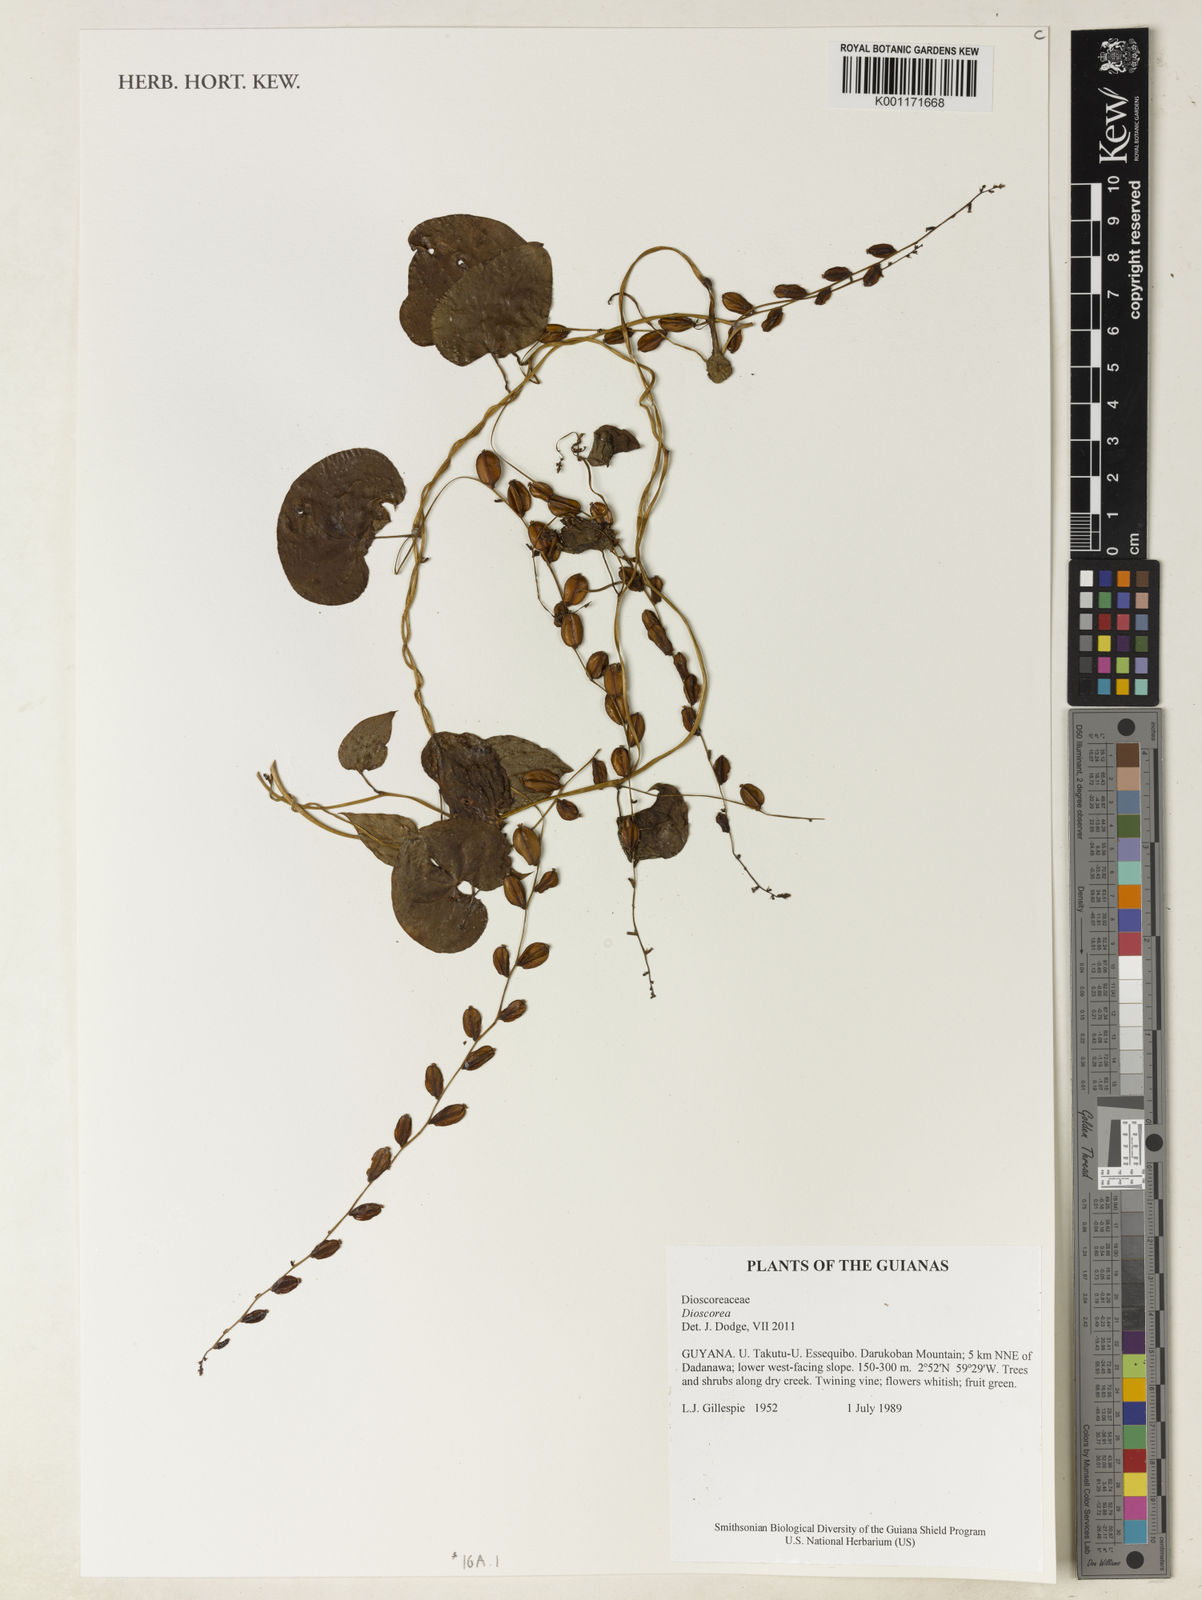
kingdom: Plantae
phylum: Tracheophyta
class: Liliopsida
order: Dioscoreales
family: Dioscoreaceae
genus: Dioscorea
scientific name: Dioscorea
